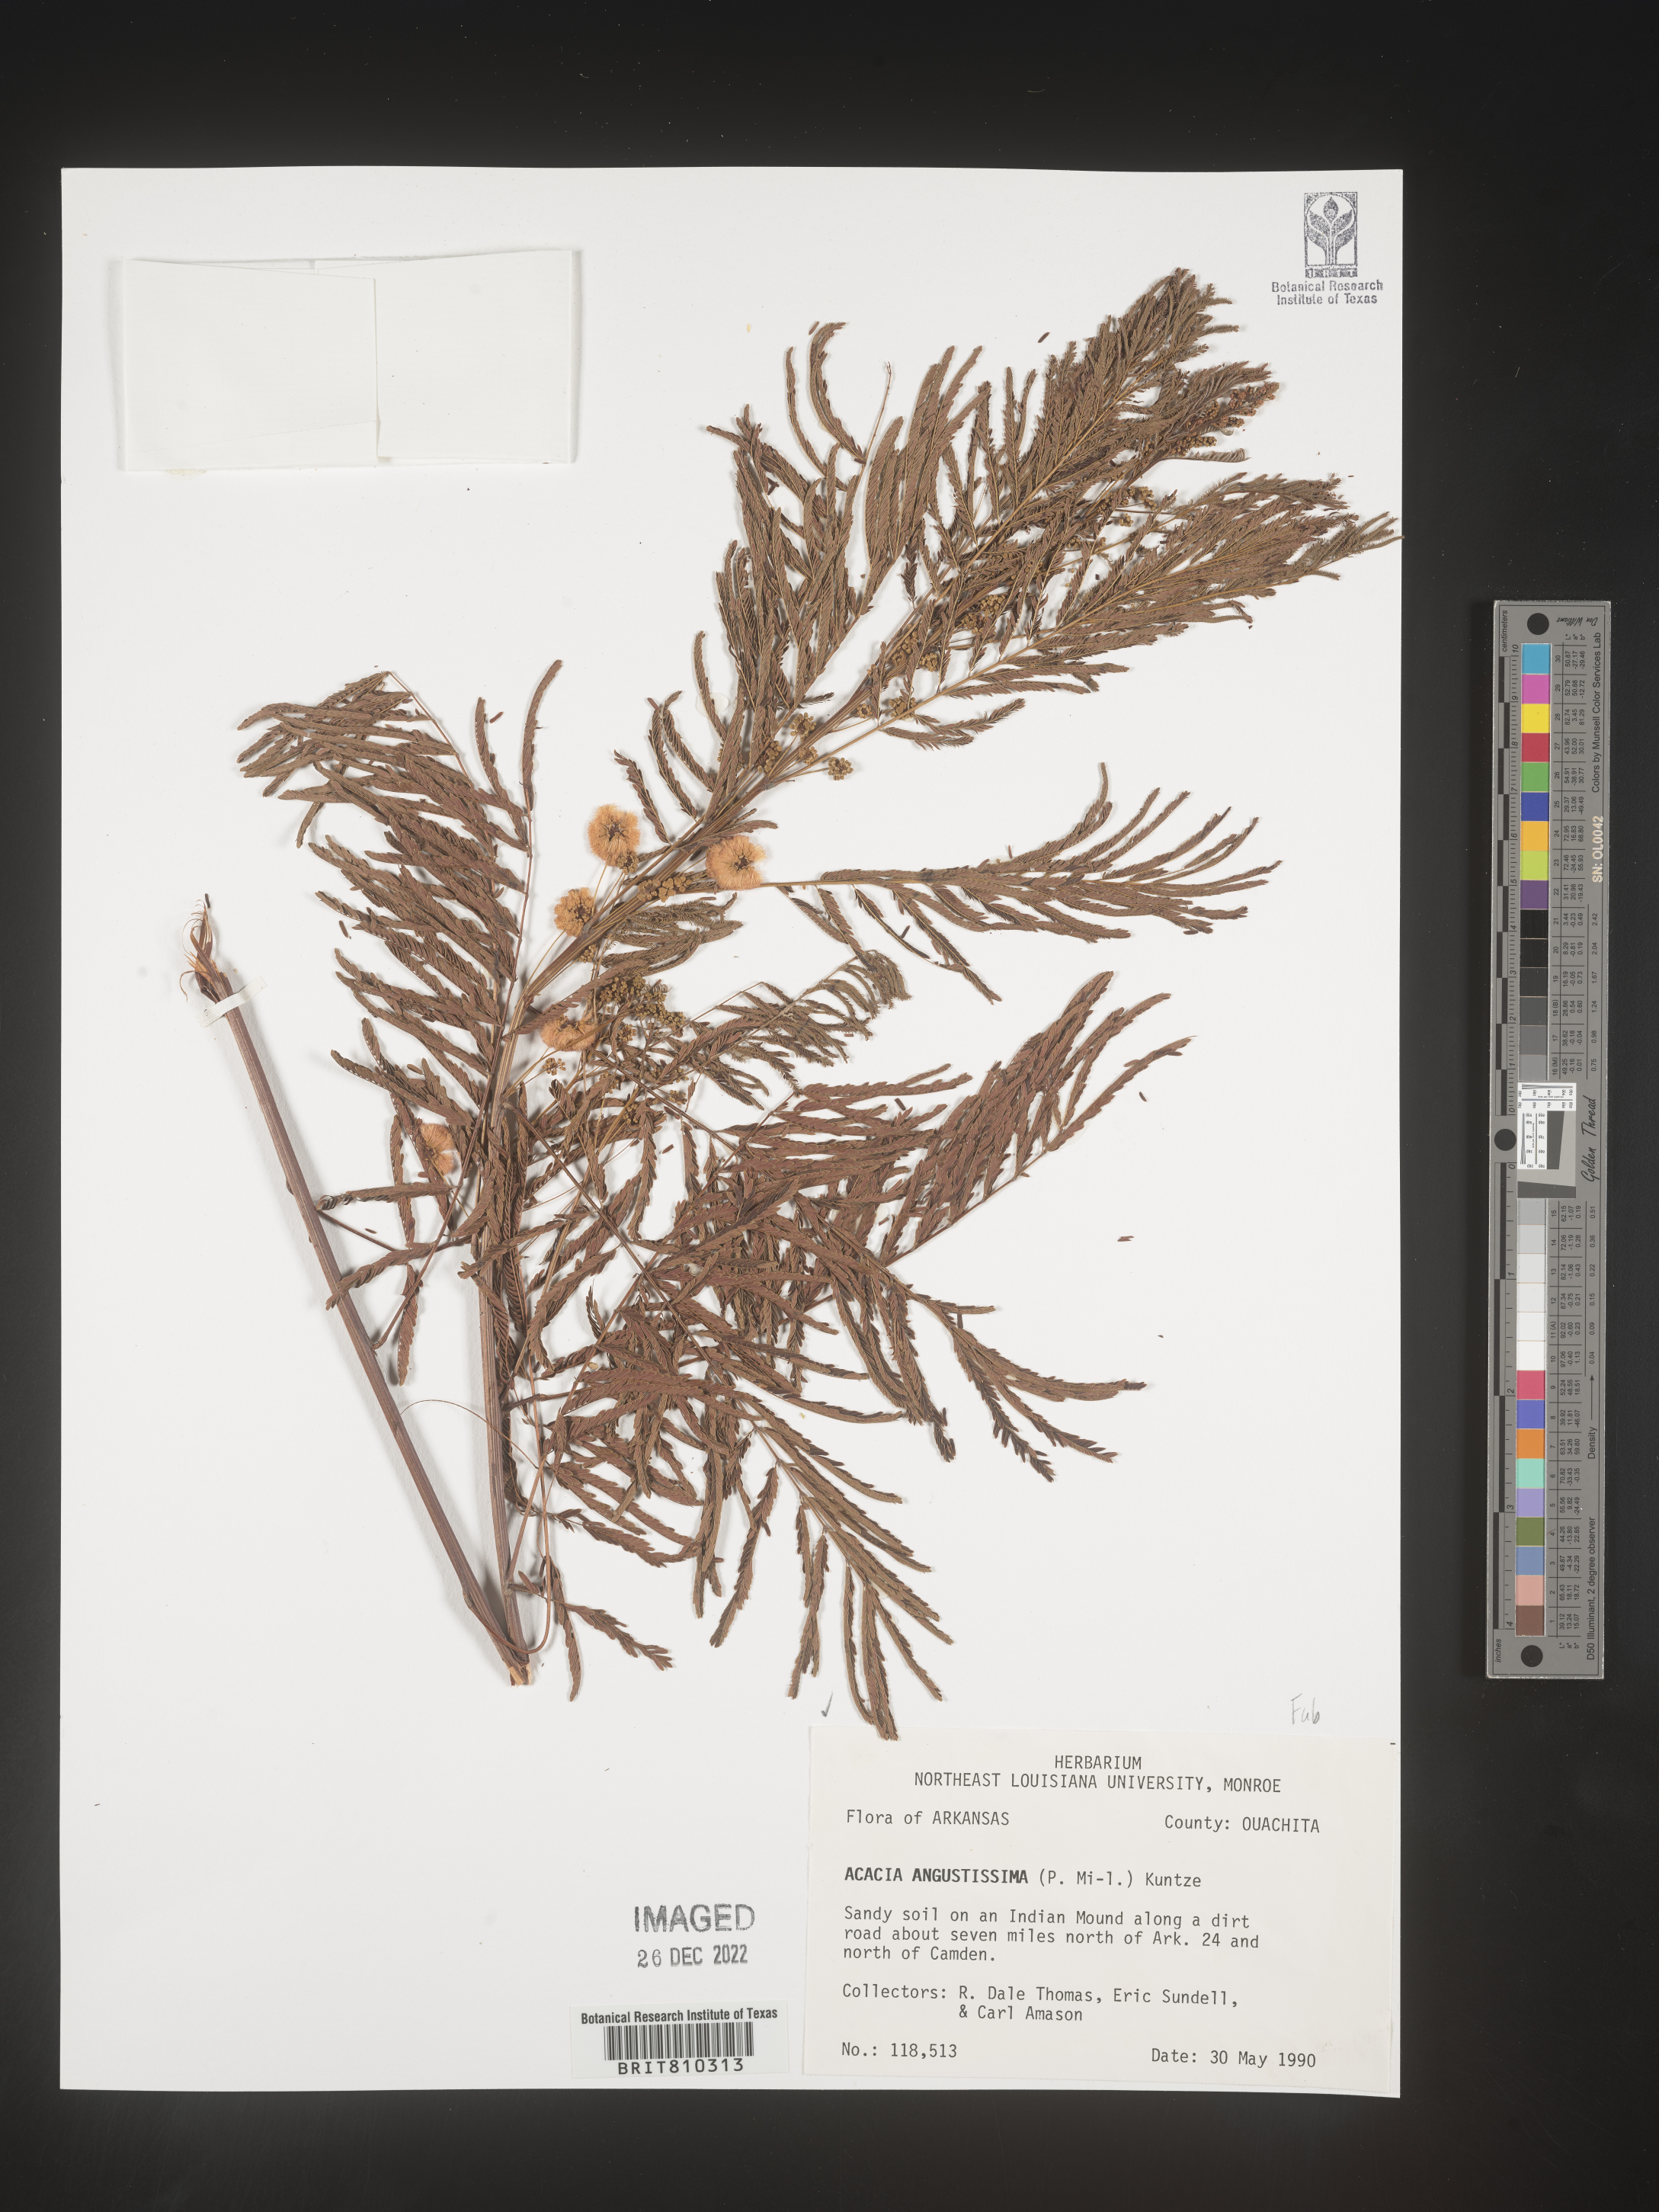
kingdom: Plantae
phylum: Tracheophyta
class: Magnoliopsida
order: Fabales
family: Fabaceae
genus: Acaciella
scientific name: Acaciella angustissima
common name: Prairie acacia
